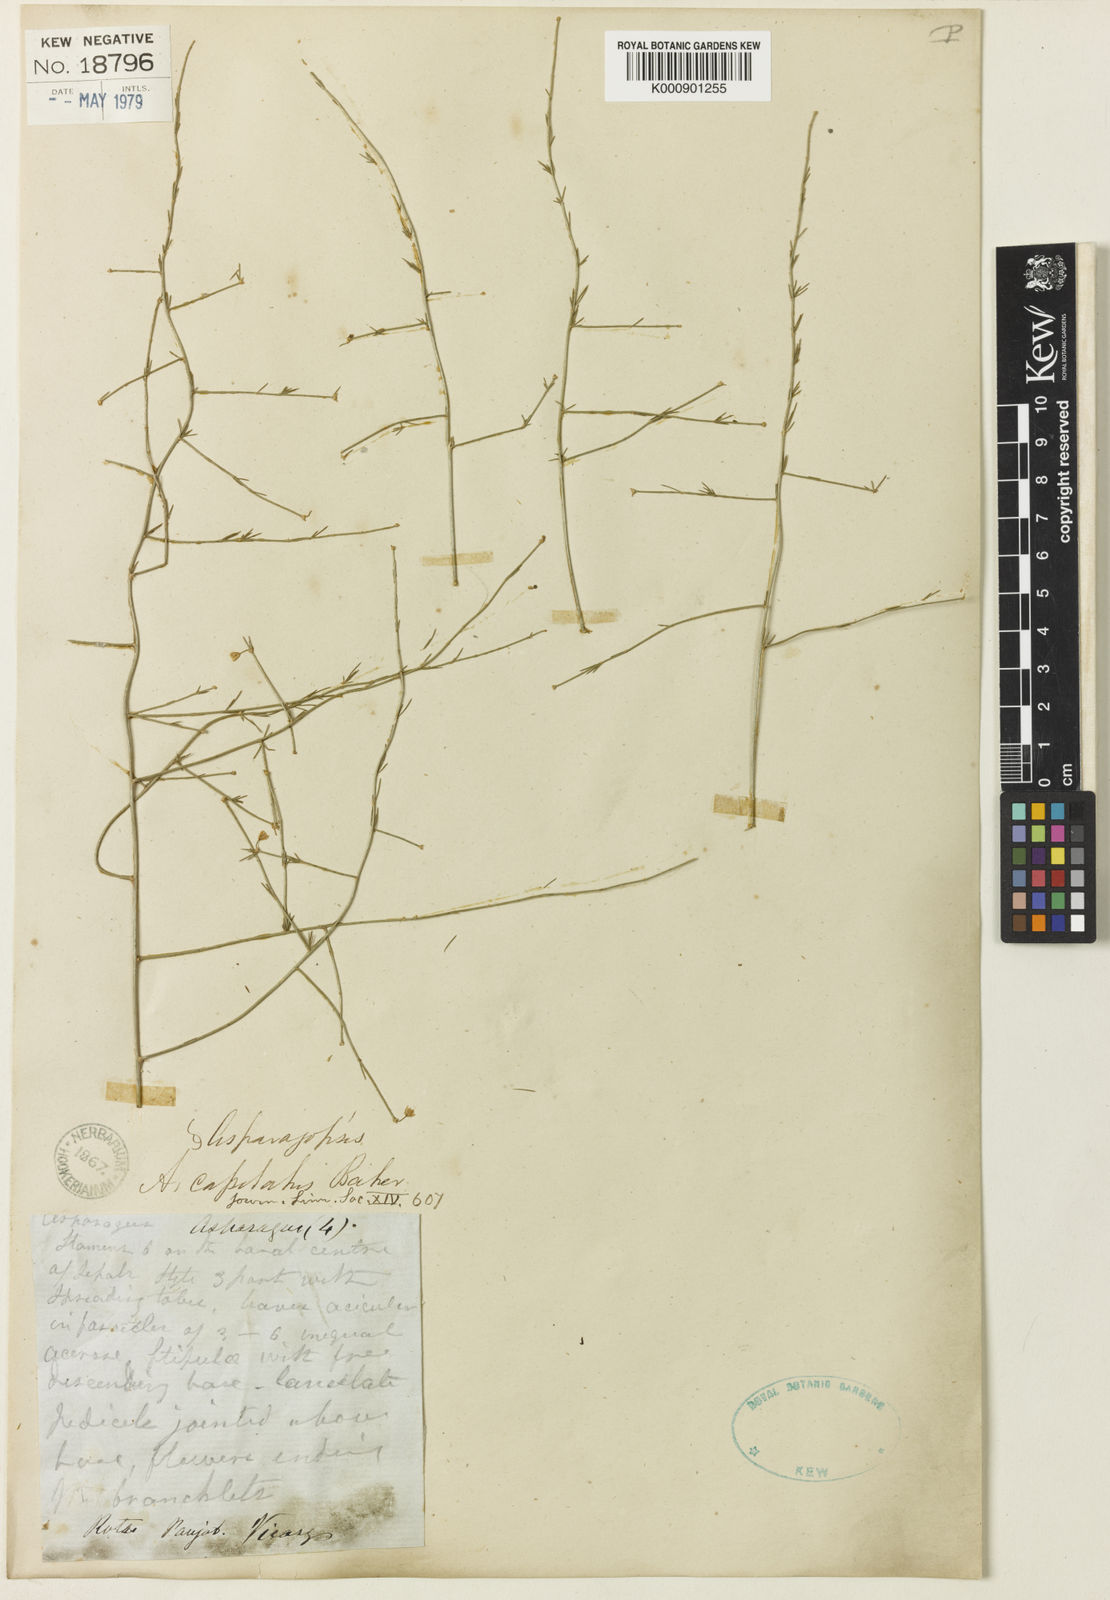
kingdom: Plantae
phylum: Tracheophyta
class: Liliopsida
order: Asparagales
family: Asparagaceae
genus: Asparagus
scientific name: Asparagus capitatus
